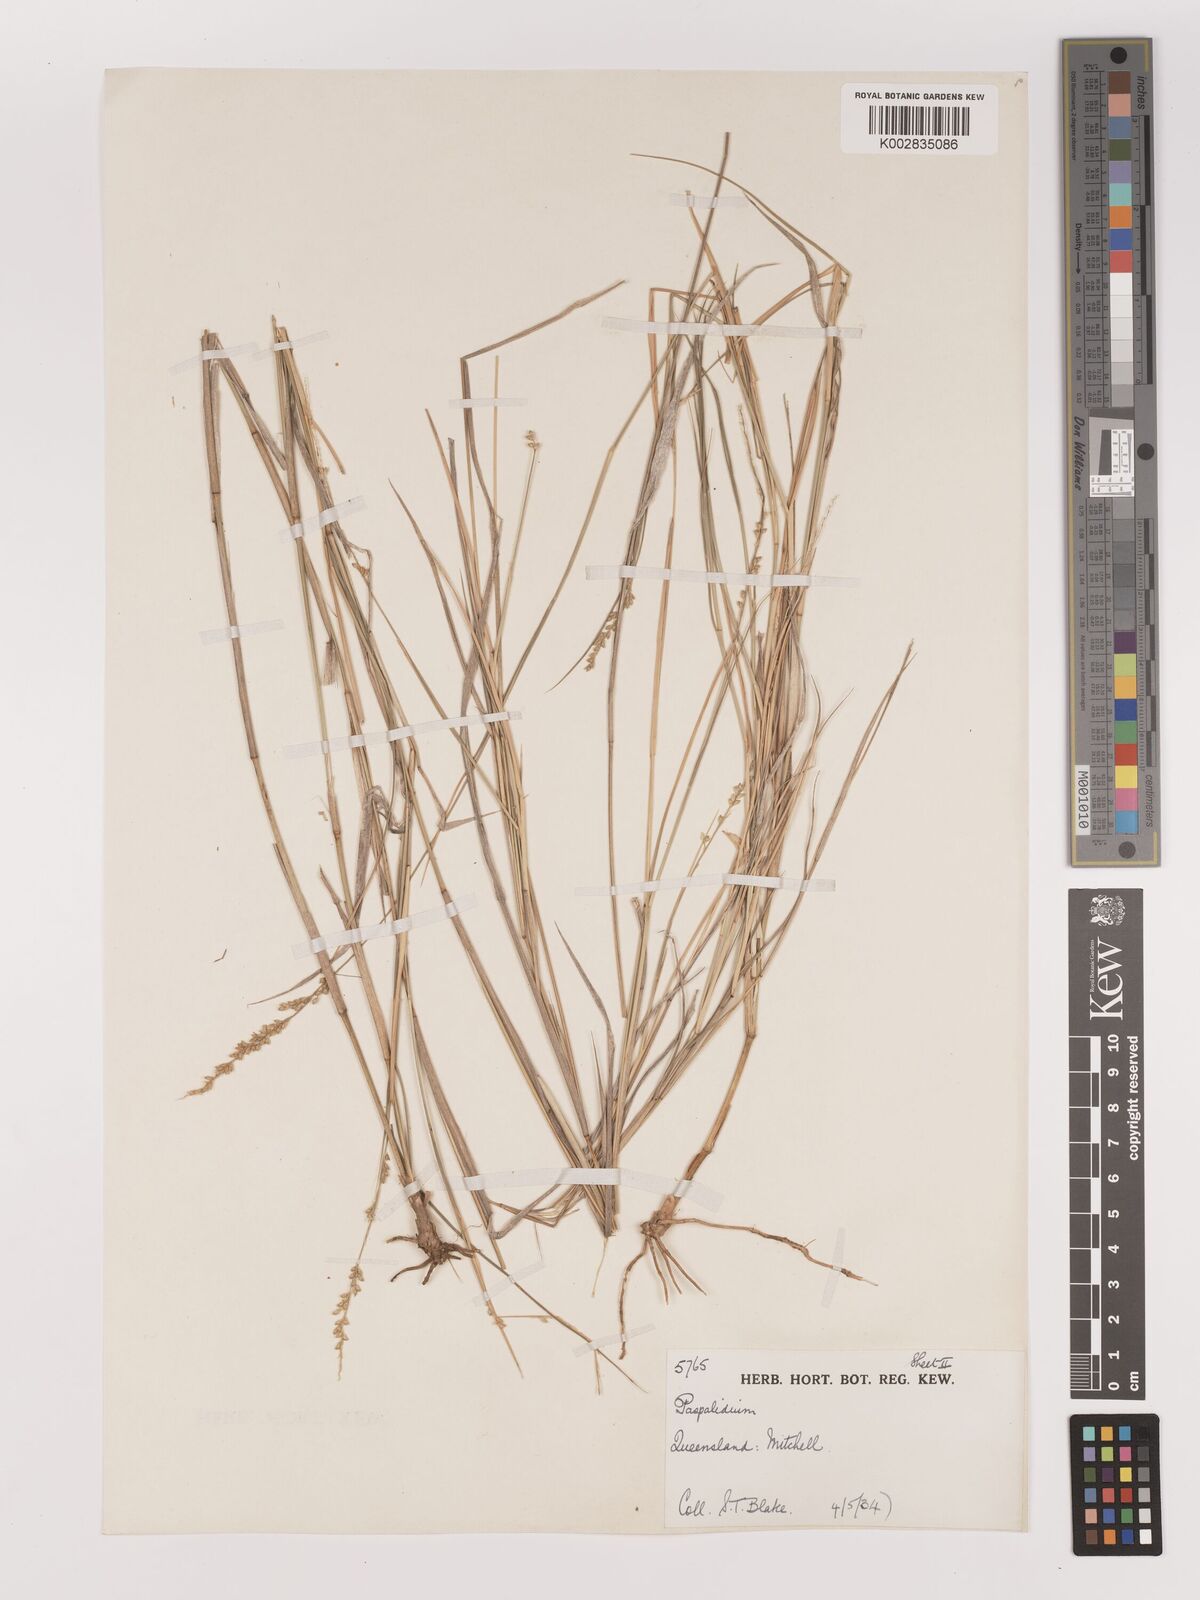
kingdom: Plantae
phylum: Tracheophyta
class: Liliopsida
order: Poales
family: Poaceae
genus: Setaria
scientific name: Setaria
